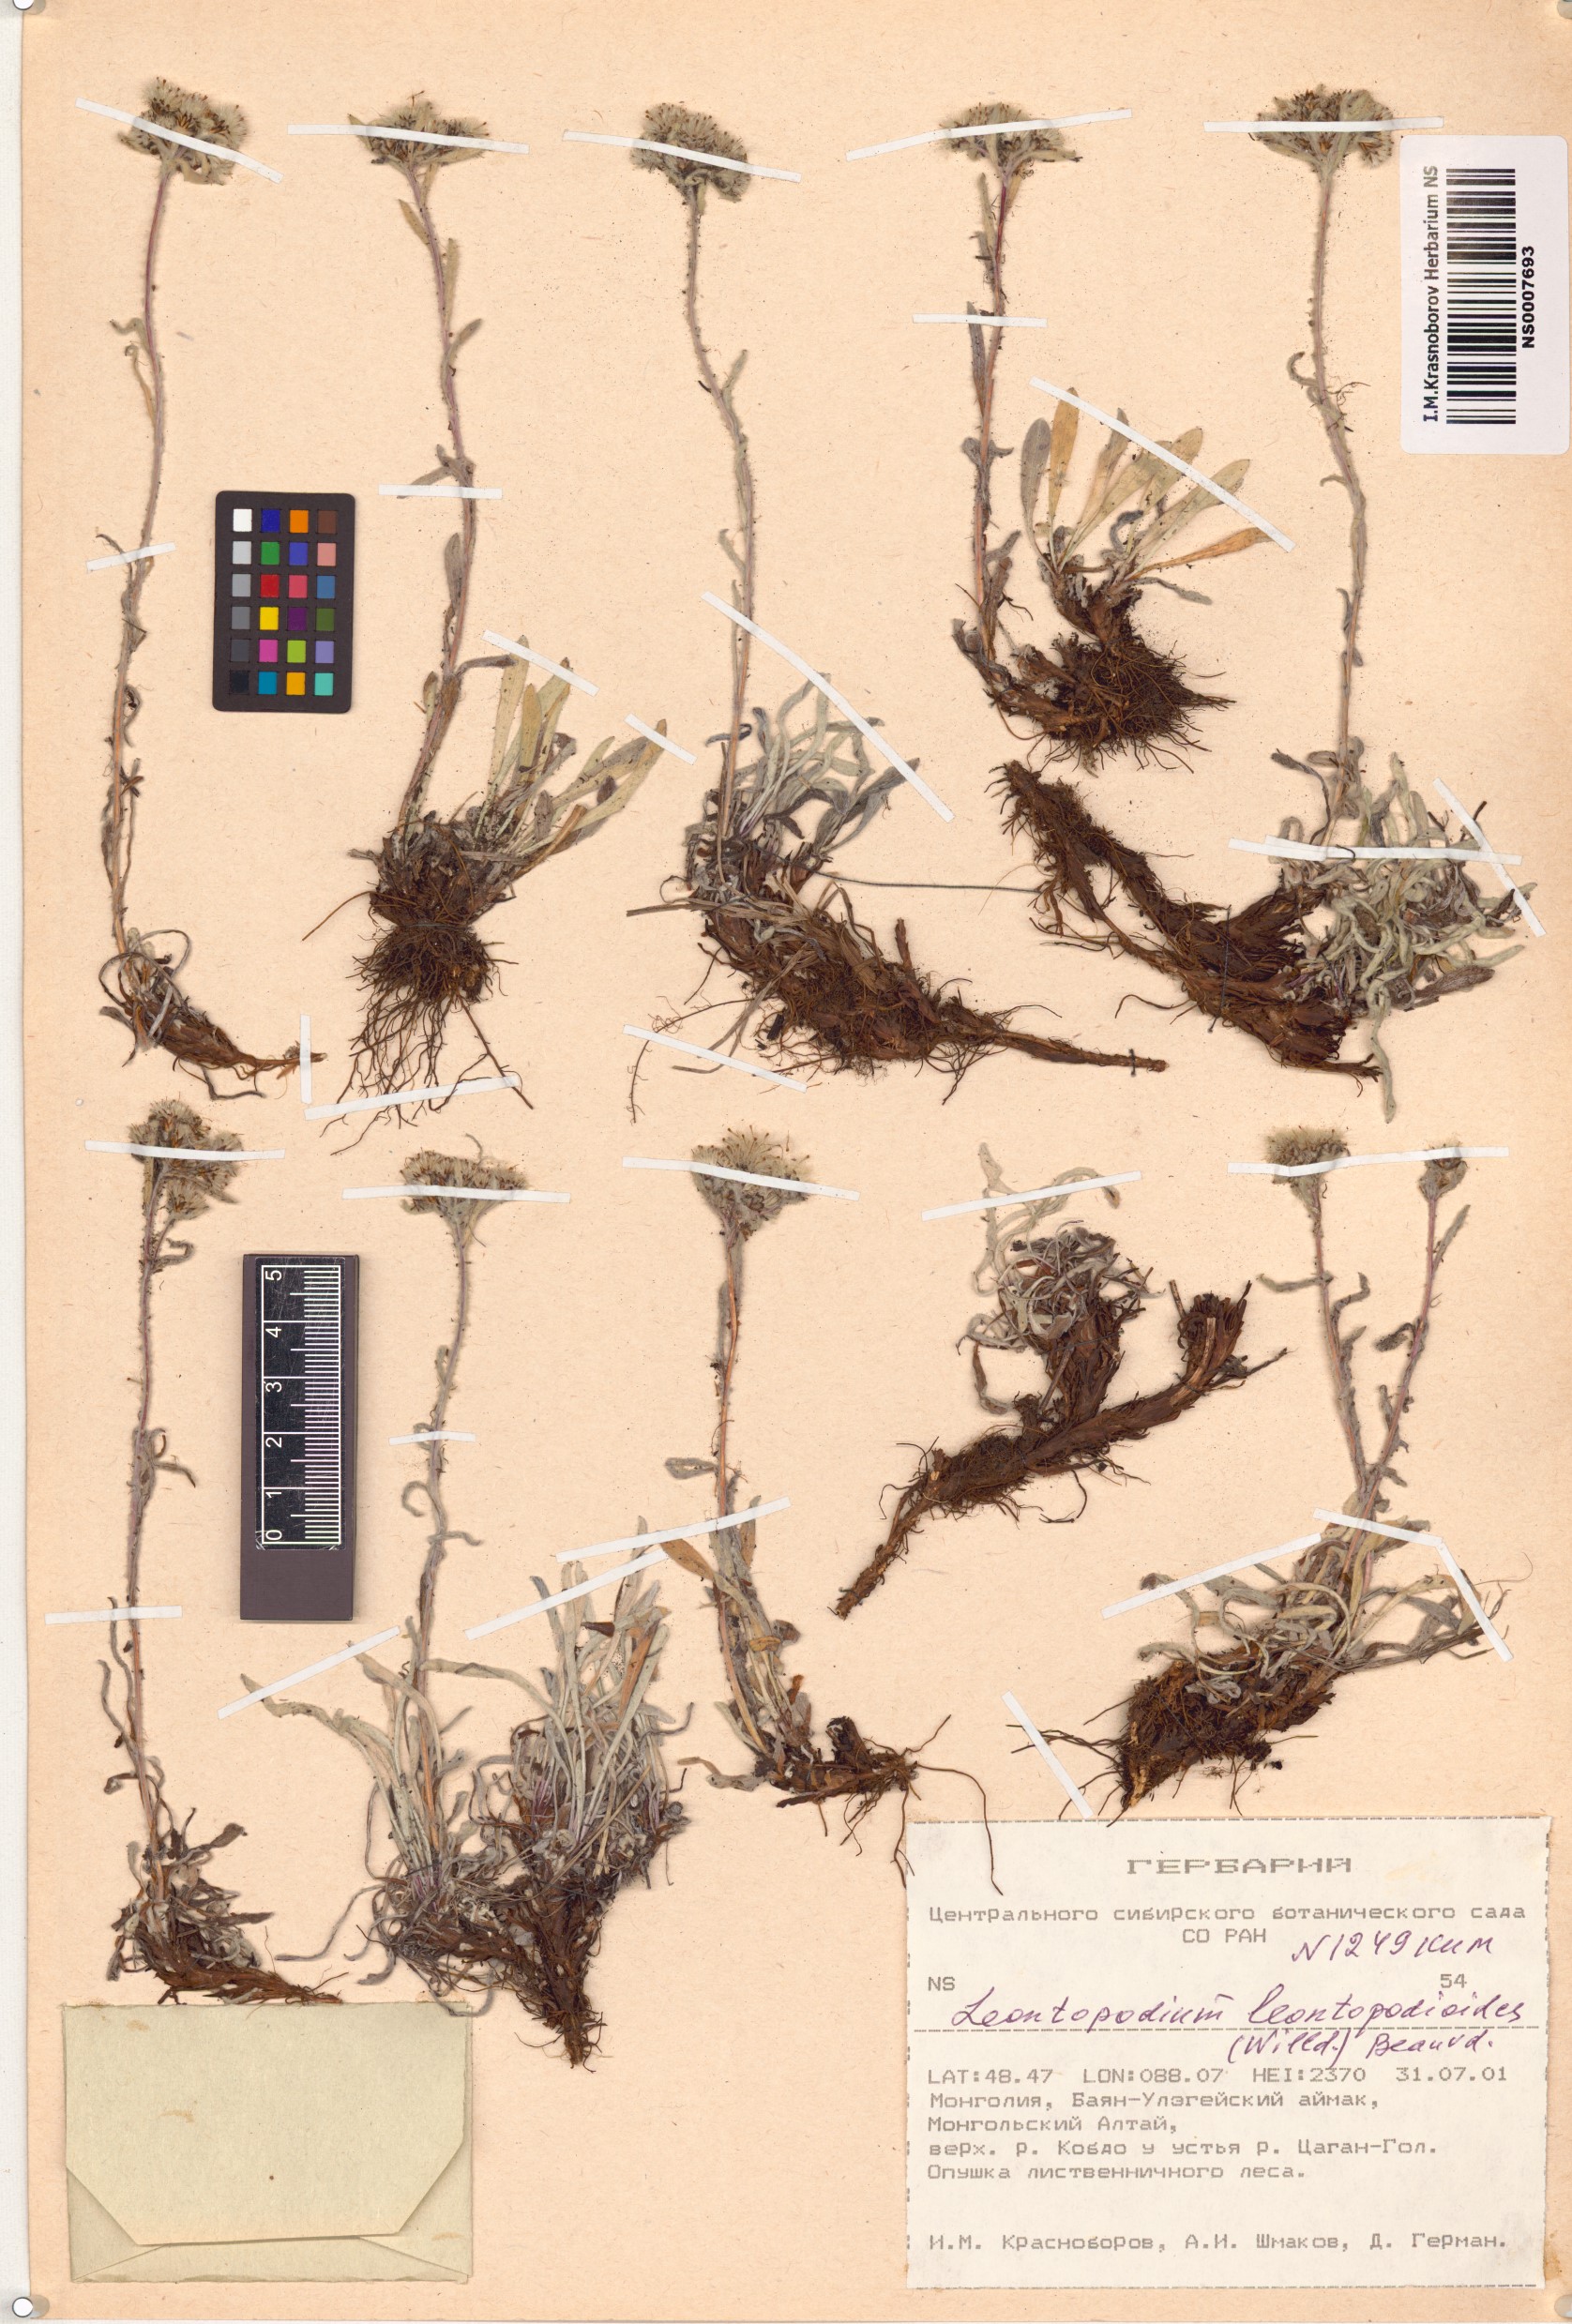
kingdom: Plantae
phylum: Tracheophyta
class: Magnoliopsida
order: Asterales
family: Asteraceae
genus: Leontopodium
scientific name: Leontopodium leontopodioides
